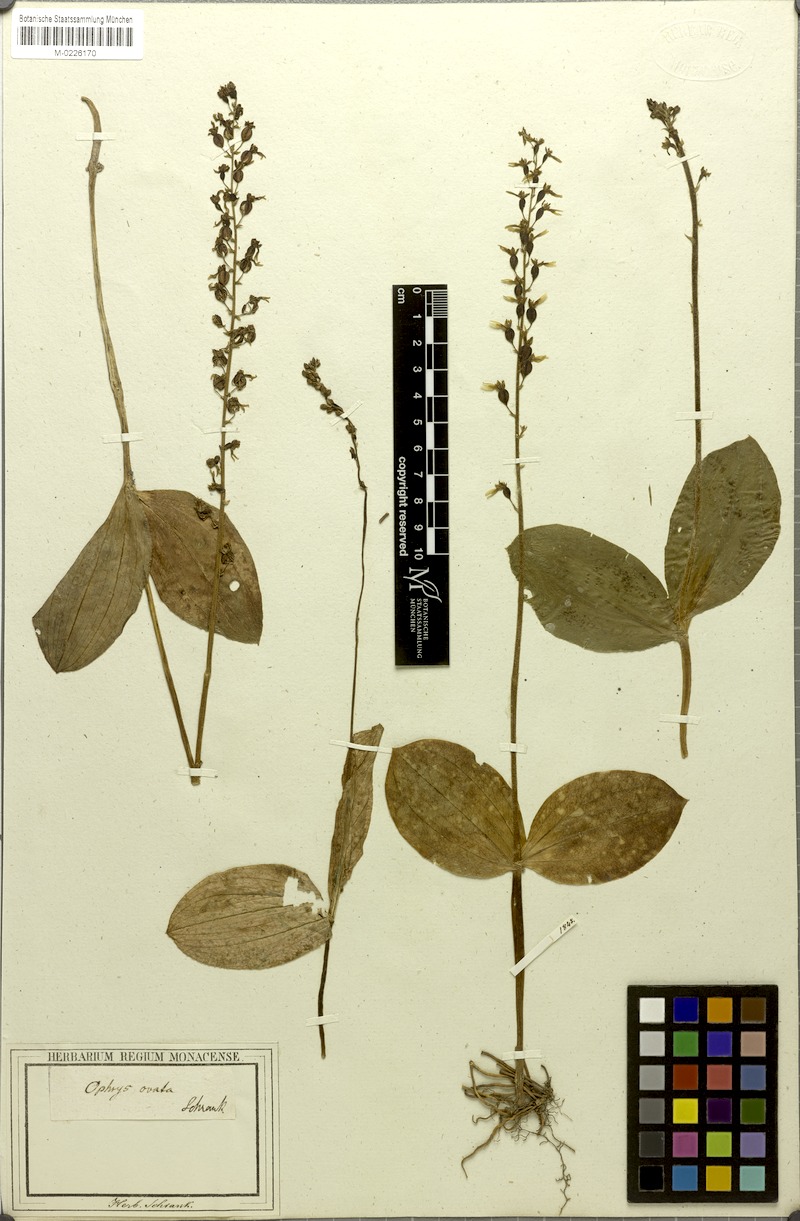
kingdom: Plantae
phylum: Tracheophyta
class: Liliopsida
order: Asparagales
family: Orchidaceae
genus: Neottia
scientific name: Neottia ovata
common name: Common twayblade
